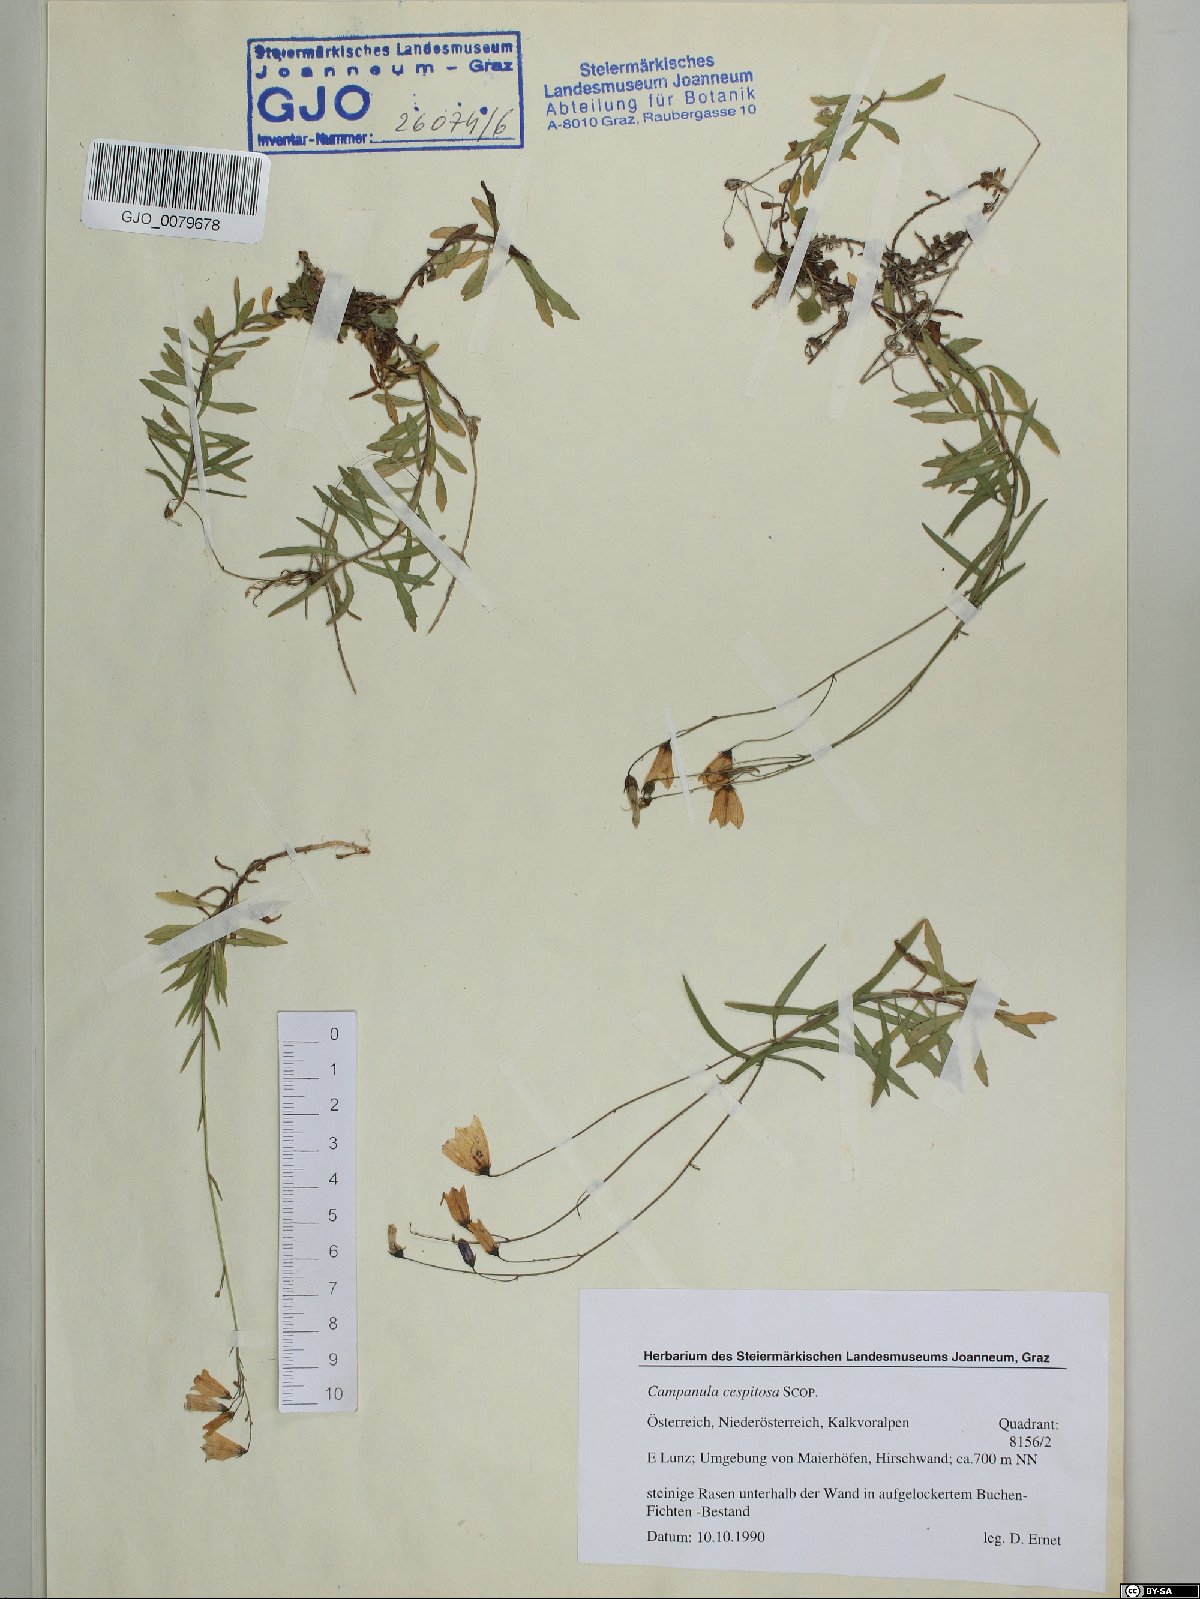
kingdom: Plantae
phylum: Tracheophyta
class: Magnoliopsida
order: Asterales
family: Campanulaceae
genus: Campanula
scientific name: Campanula cespitosa
